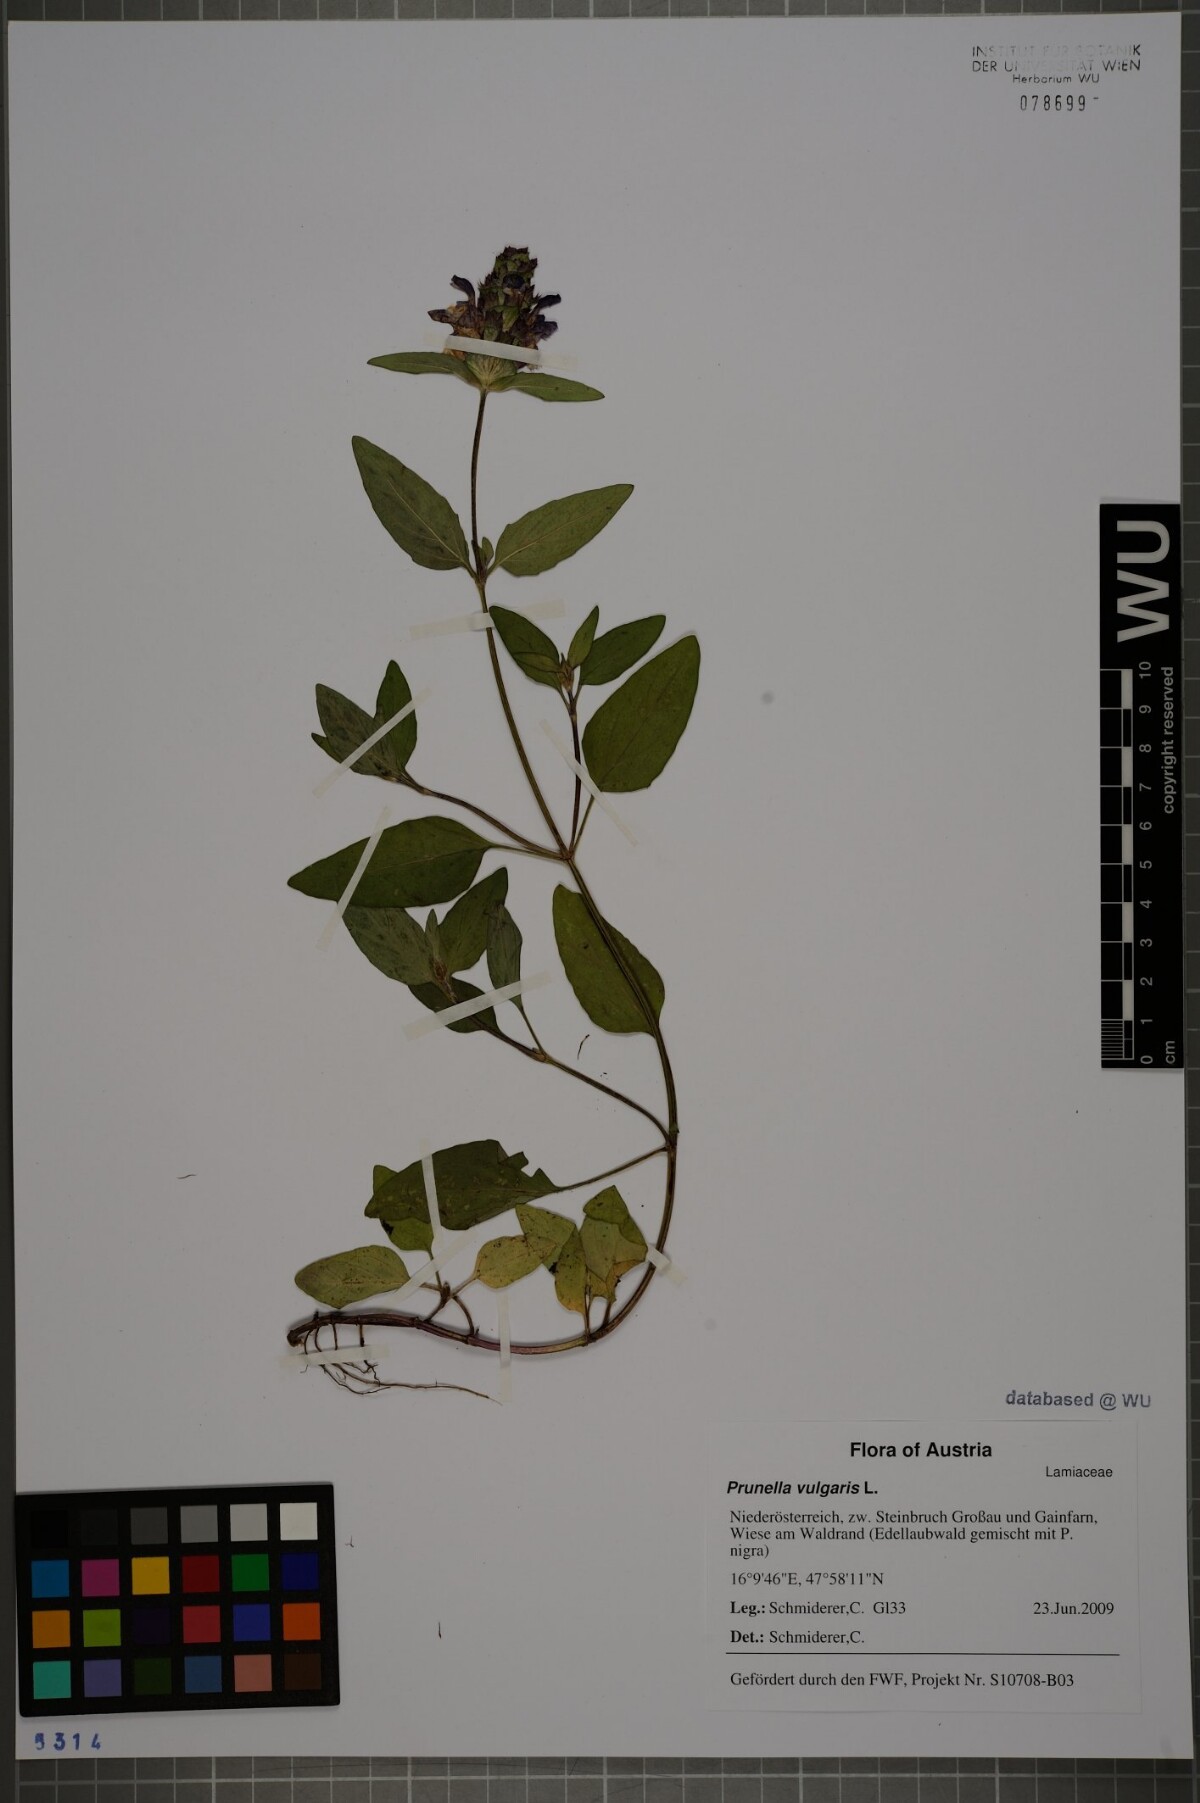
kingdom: Plantae
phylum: Tracheophyta
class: Magnoliopsida
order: Lamiales
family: Lamiaceae
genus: Prunella
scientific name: Prunella vulgaris
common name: Heal-all
